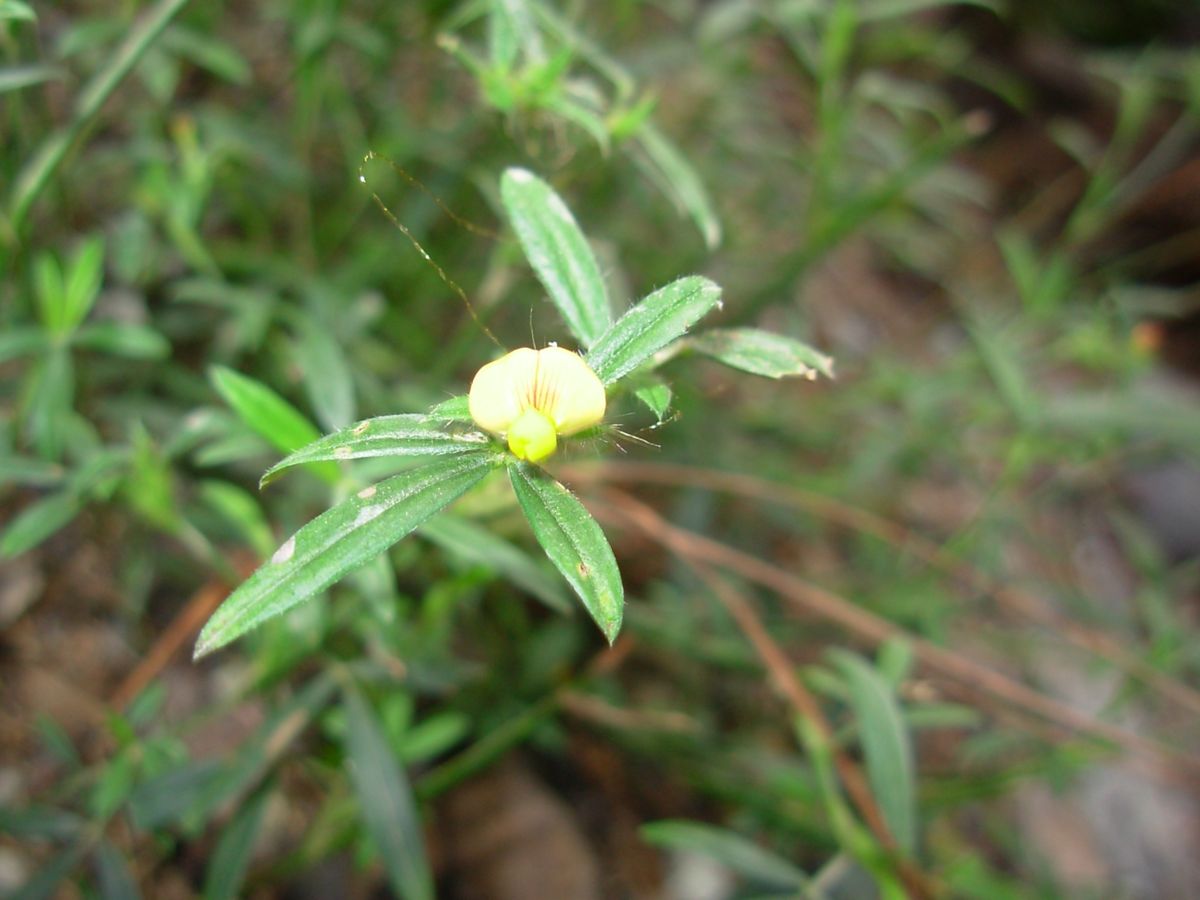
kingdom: Plantae
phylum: Tracheophyta
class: Magnoliopsida
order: Fabales
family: Fabaceae
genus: Stylosanthes
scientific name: Stylosanthes guianensis
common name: Pencil flower
